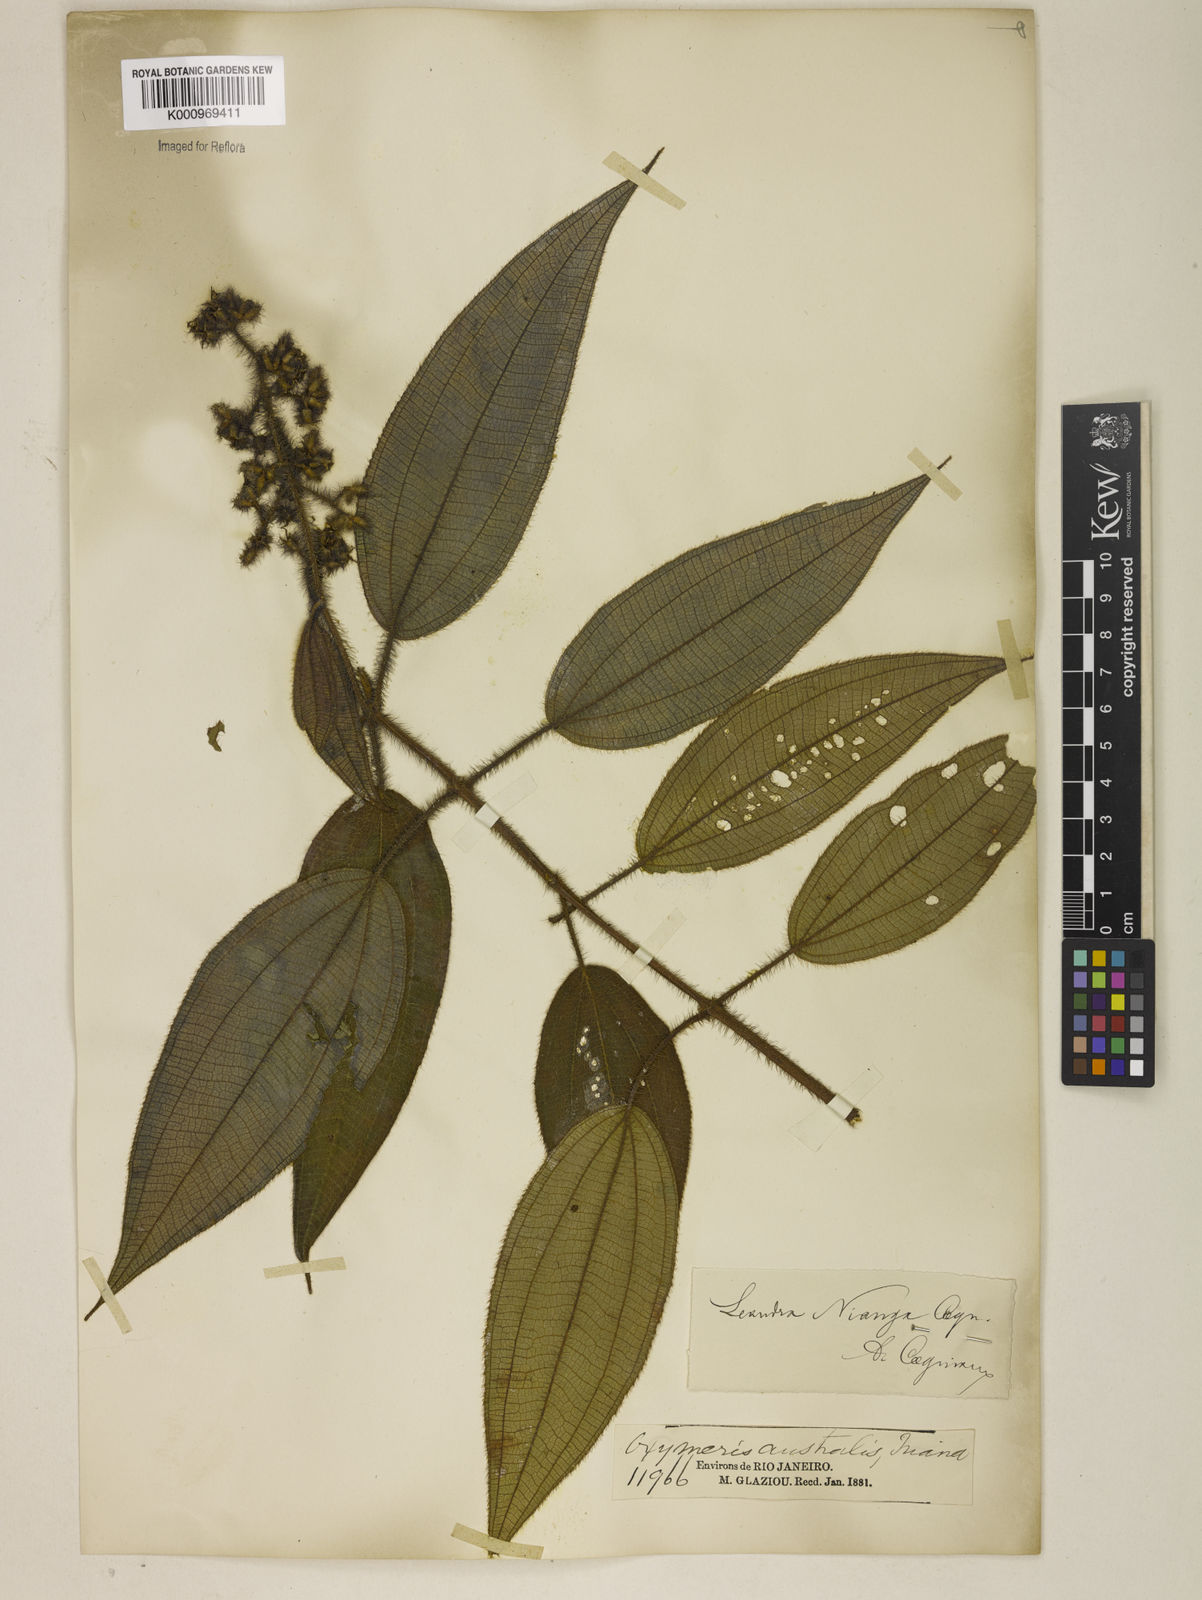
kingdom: Plantae
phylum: Tracheophyta
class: Magnoliopsida
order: Myrtales
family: Melastomataceae
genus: Miconia
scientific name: Miconia nianga
